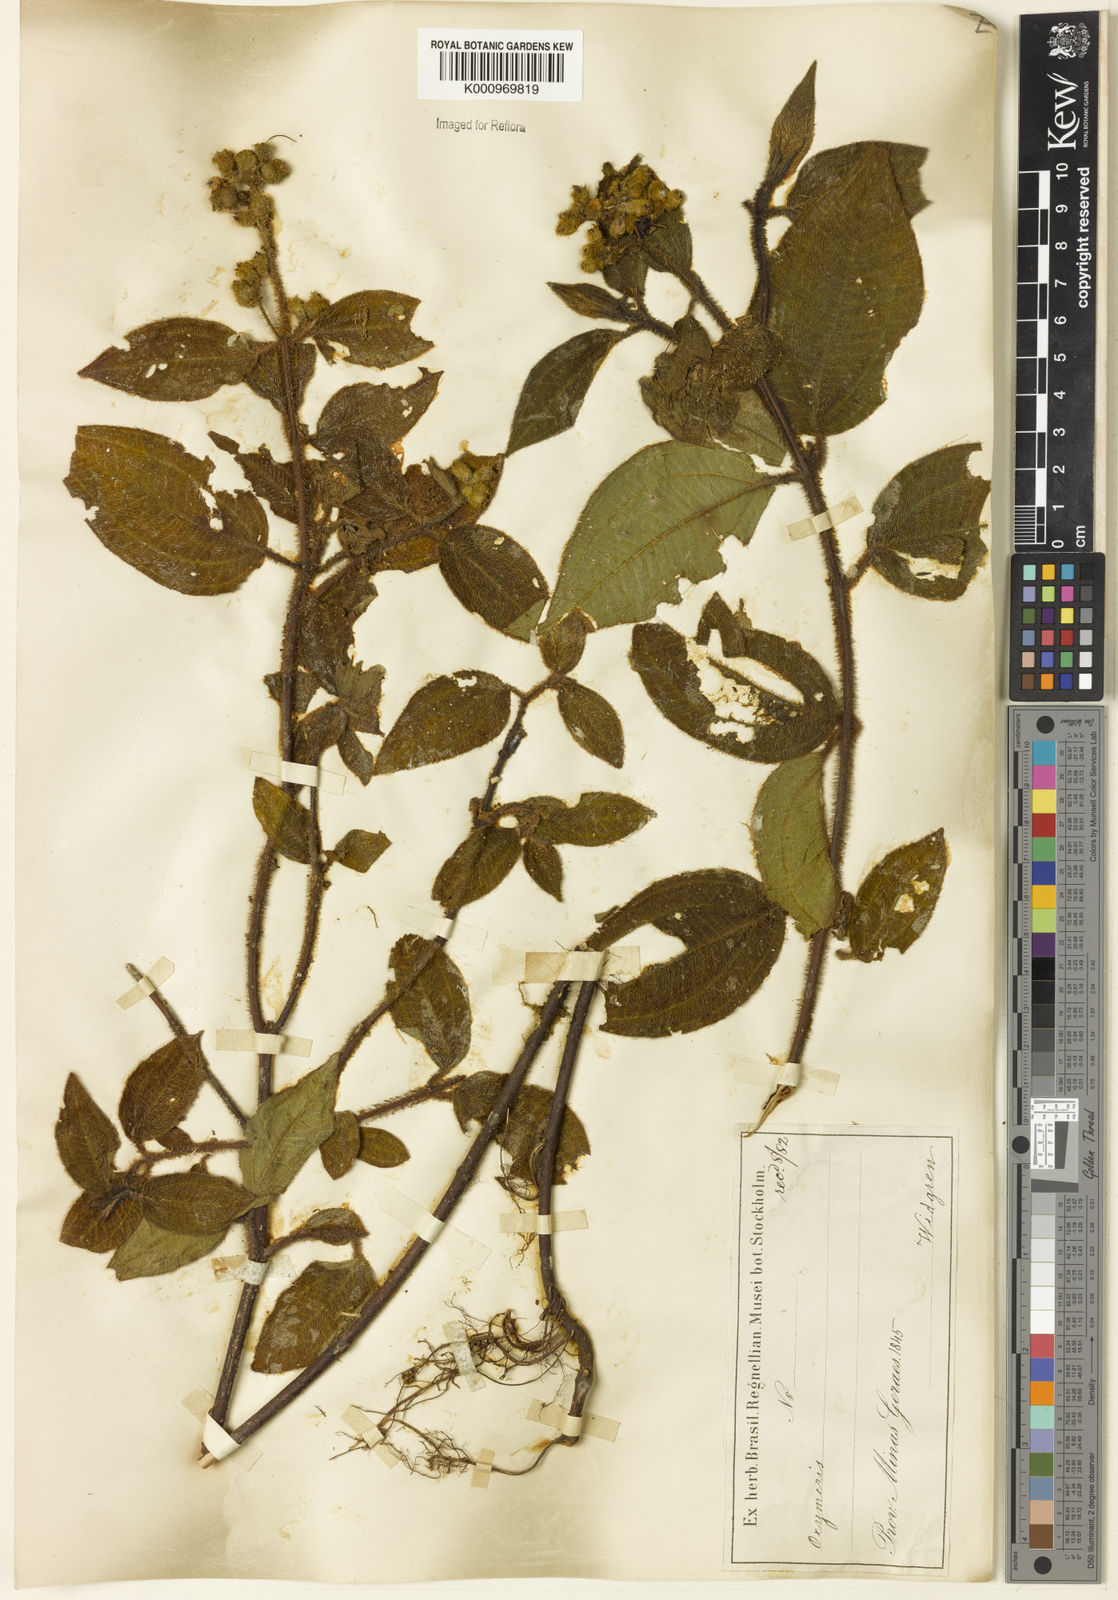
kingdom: Plantae
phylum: Tracheophyta
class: Magnoliopsida
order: Myrtales
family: Melastomataceae
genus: Miconia
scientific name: Miconia
